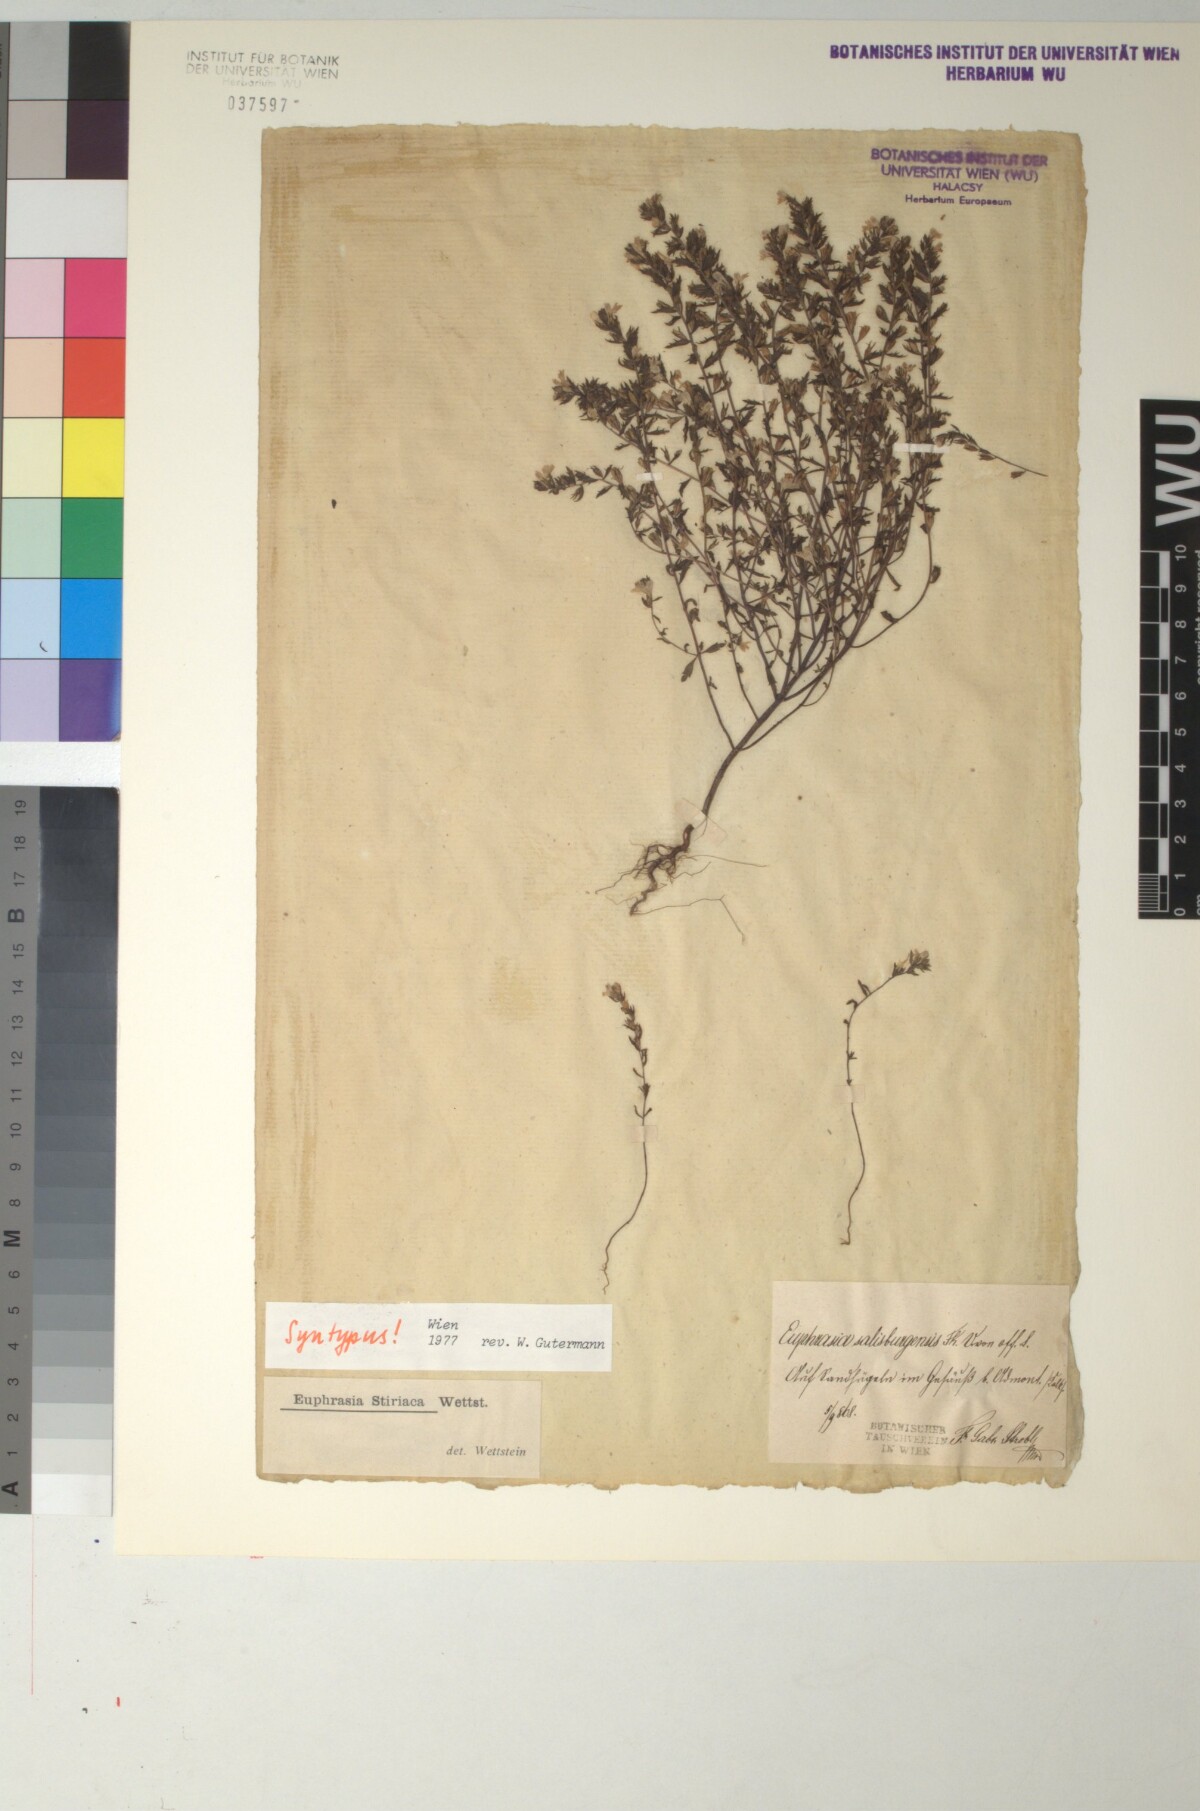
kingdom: Plantae
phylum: Tracheophyta
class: Magnoliopsida
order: Lamiales
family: Orobanchaceae
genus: Euphrasia
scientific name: Euphrasia cuspidata
